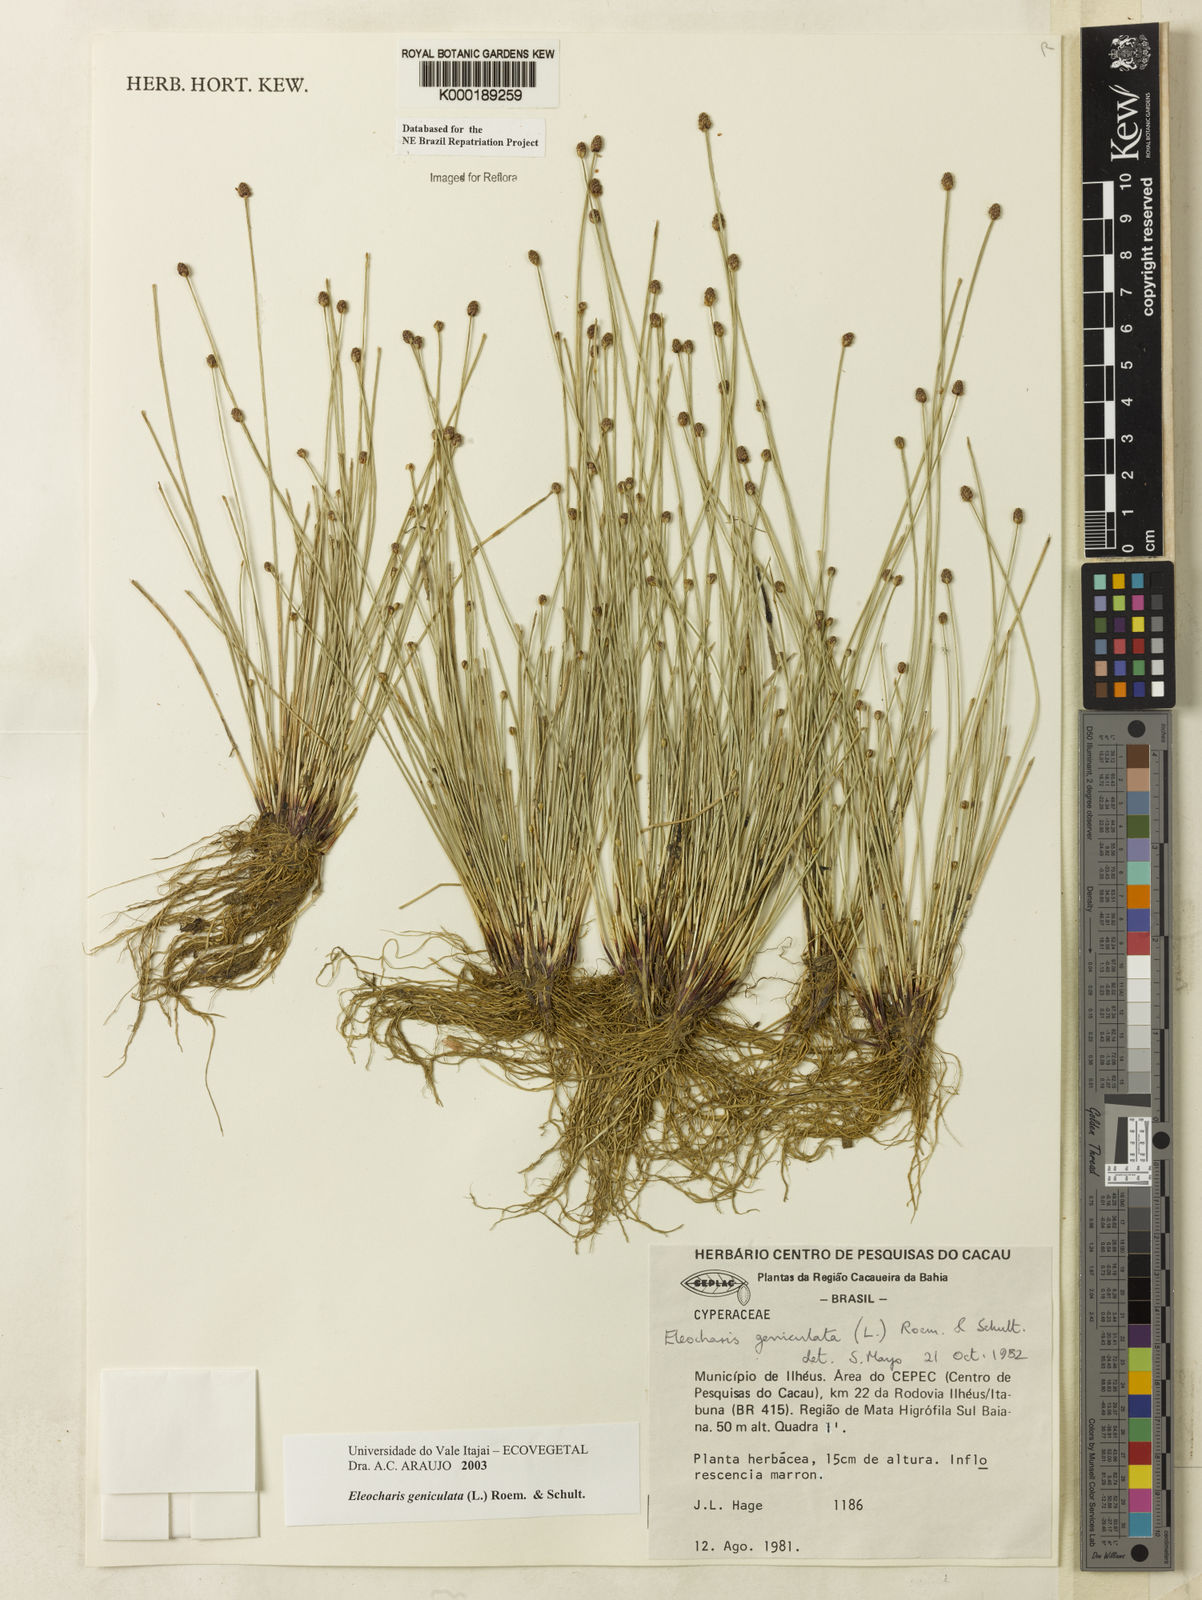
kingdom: Plantae
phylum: Tracheophyta
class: Liliopsida
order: Poales
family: Cyperaceae
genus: Eleocharis
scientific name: Eleocharis geniculata
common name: Canada spikesedge
